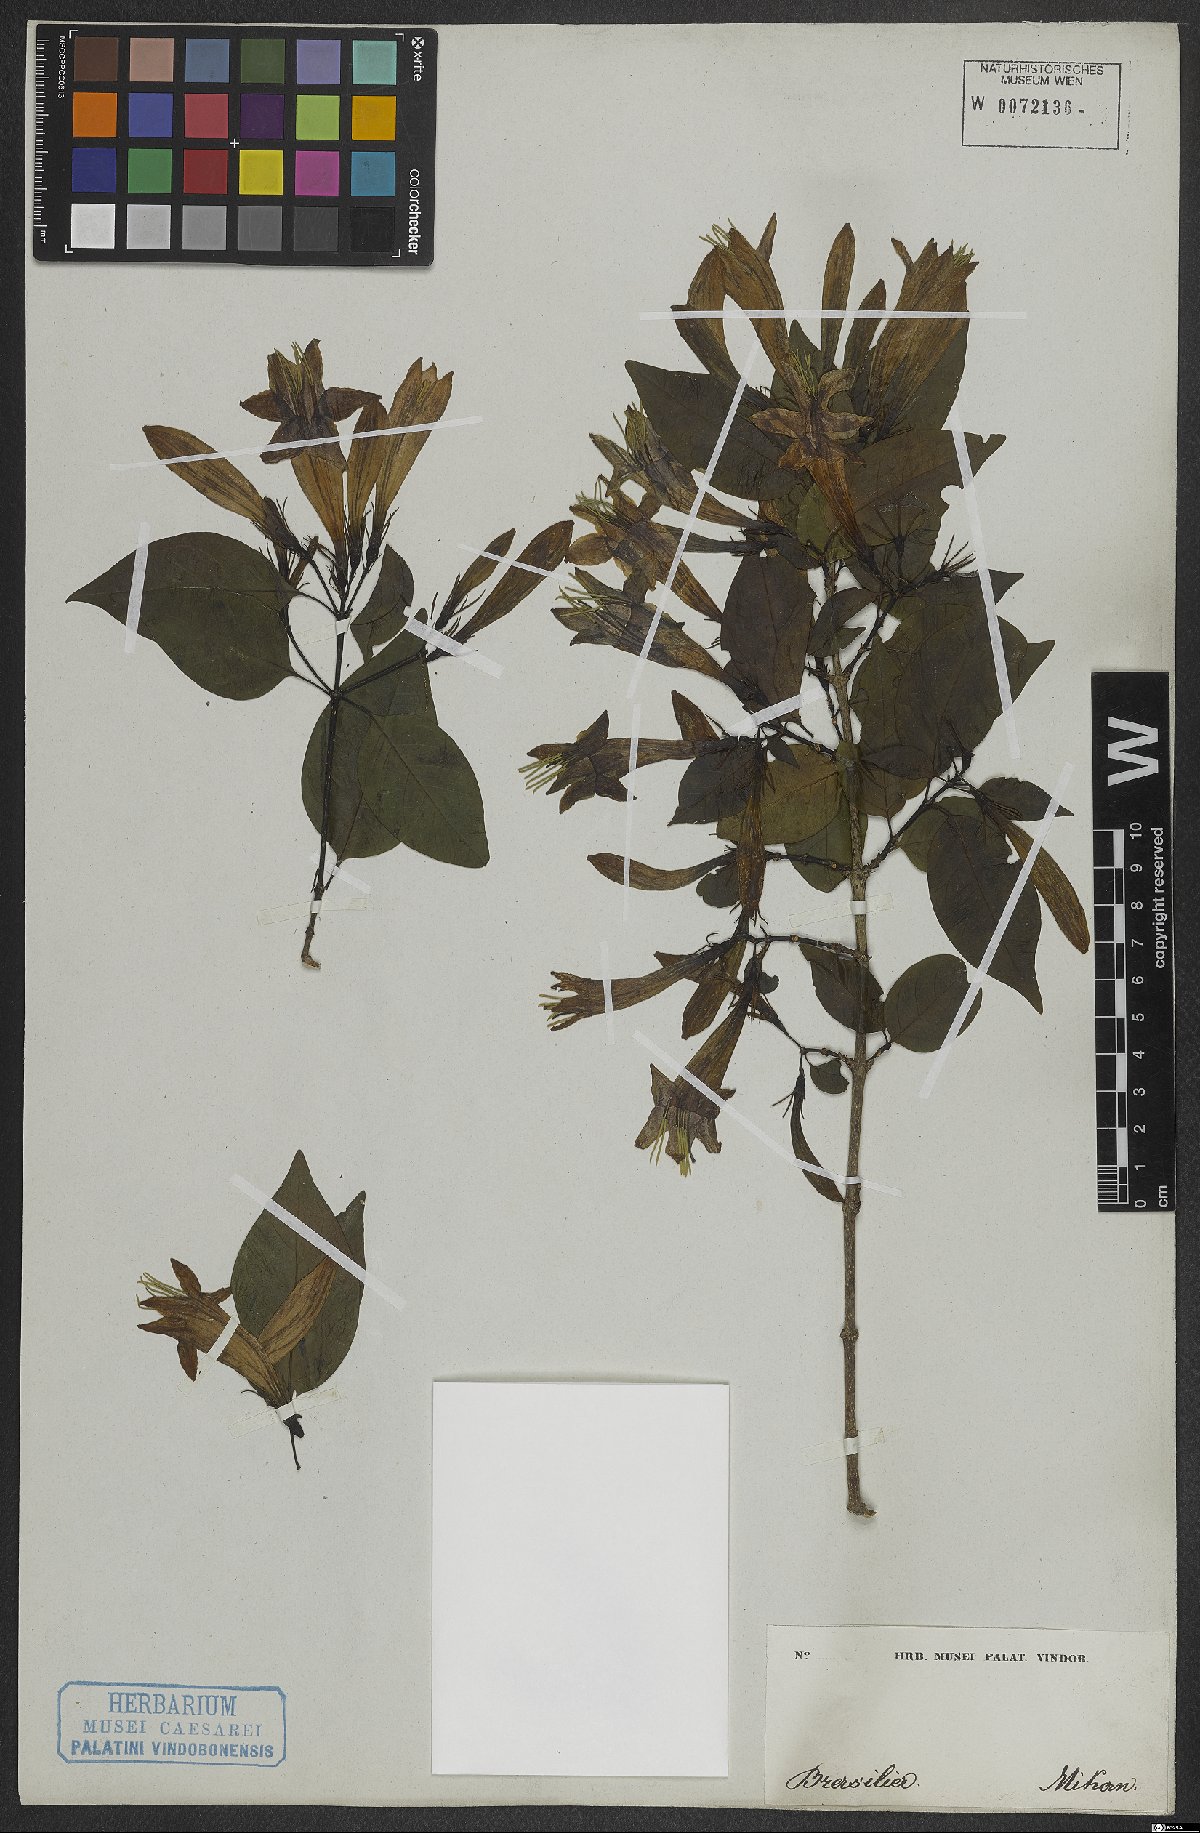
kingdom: Plantae
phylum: Tracheophyta
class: Magnoliopsida
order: Gentianales
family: Rubiaceae
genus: Coutarea
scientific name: Coutarea
